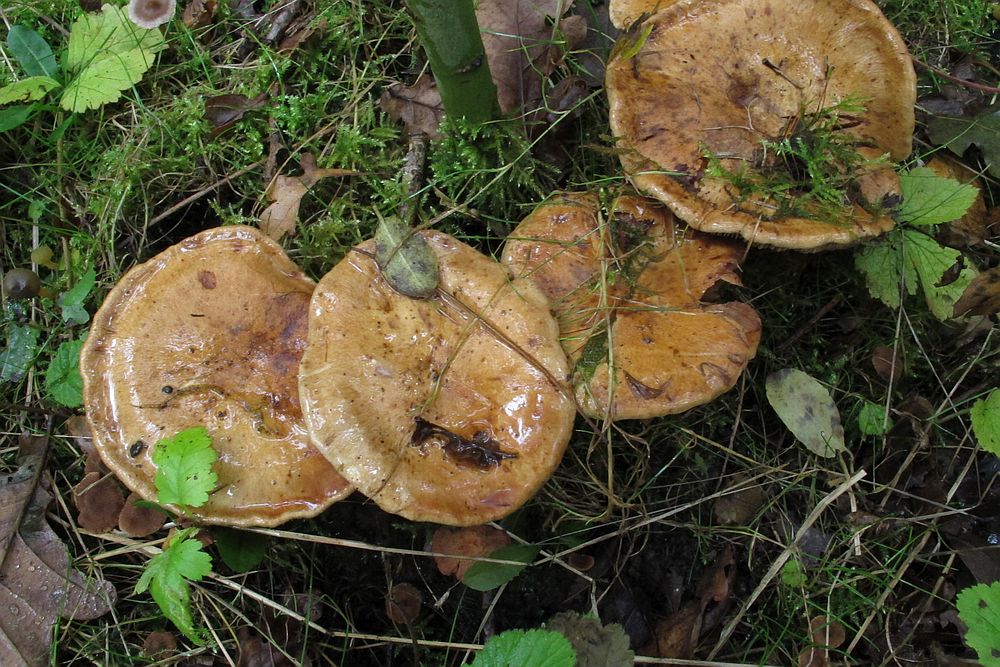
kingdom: Fungi
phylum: Basidiomycota
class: Agaricomycetes
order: Agaricales
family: Cortinariaceae
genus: Cortinarius
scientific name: Cortinarius largus
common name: violetrandet slørhat
